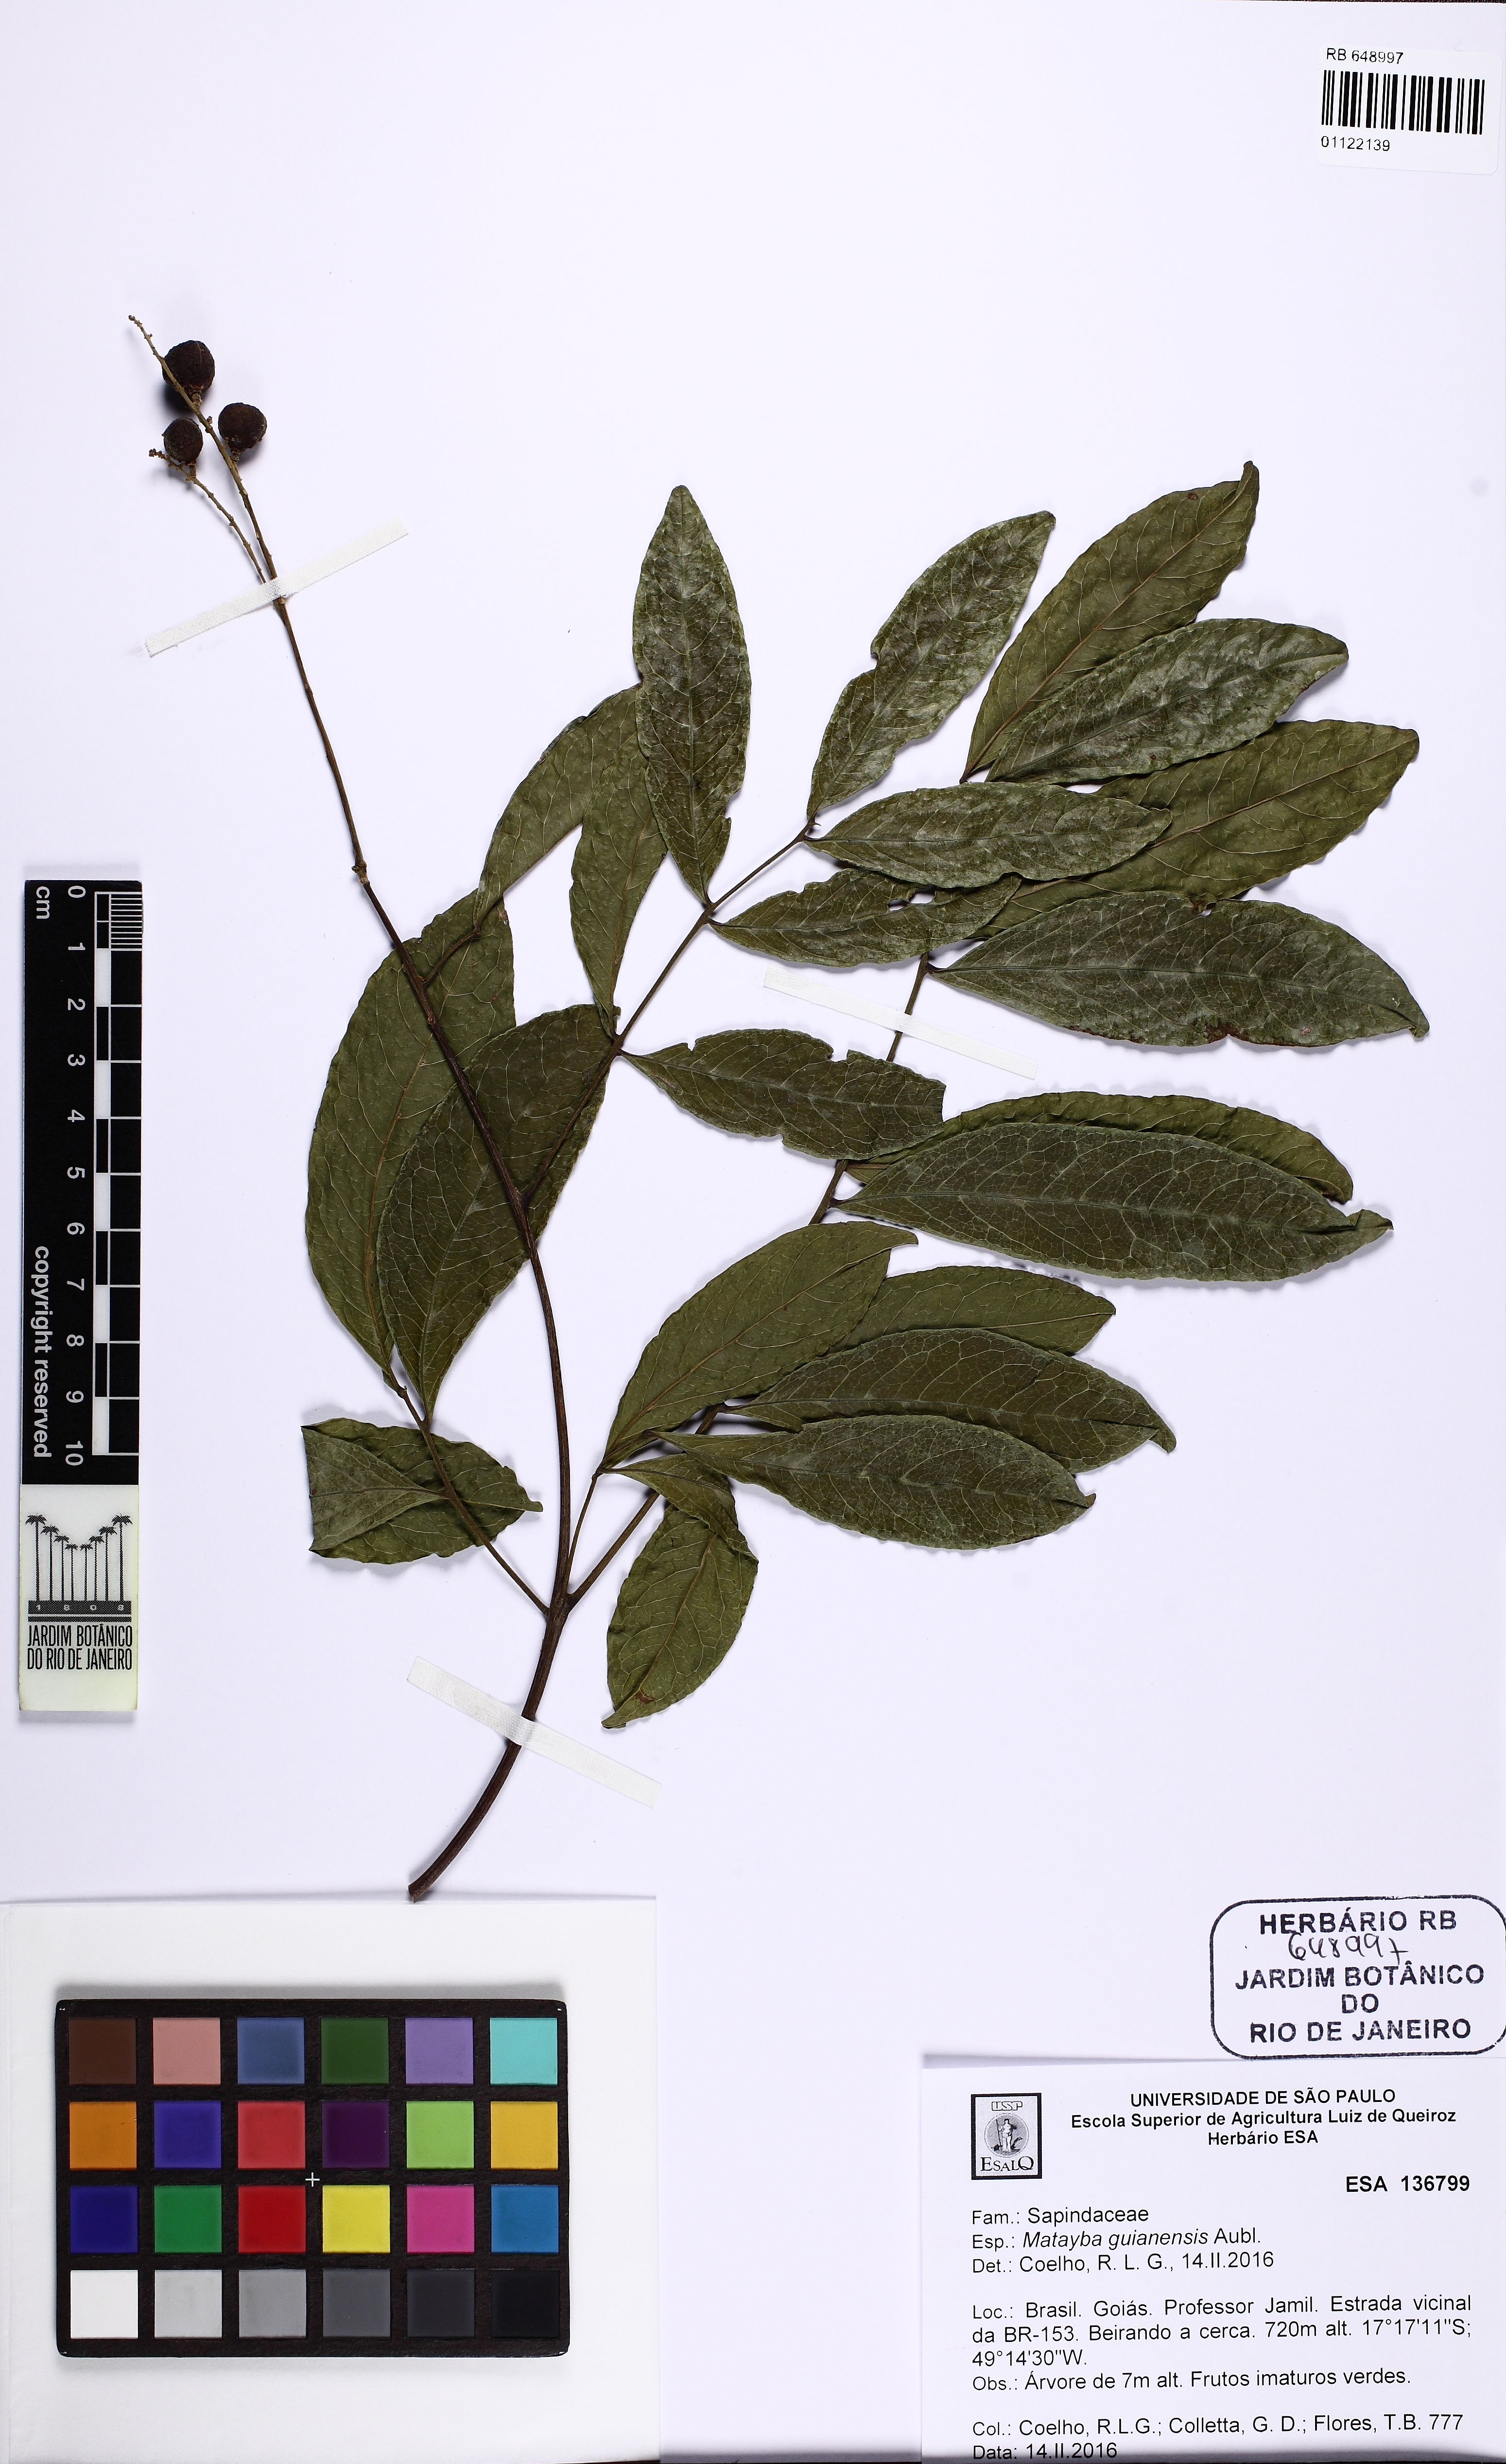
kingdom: Plantae
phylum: Tracheophyta
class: Magnoliopsida
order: Sapindales
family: Sapindaceae
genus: Matayba
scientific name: Matayba guianensis
